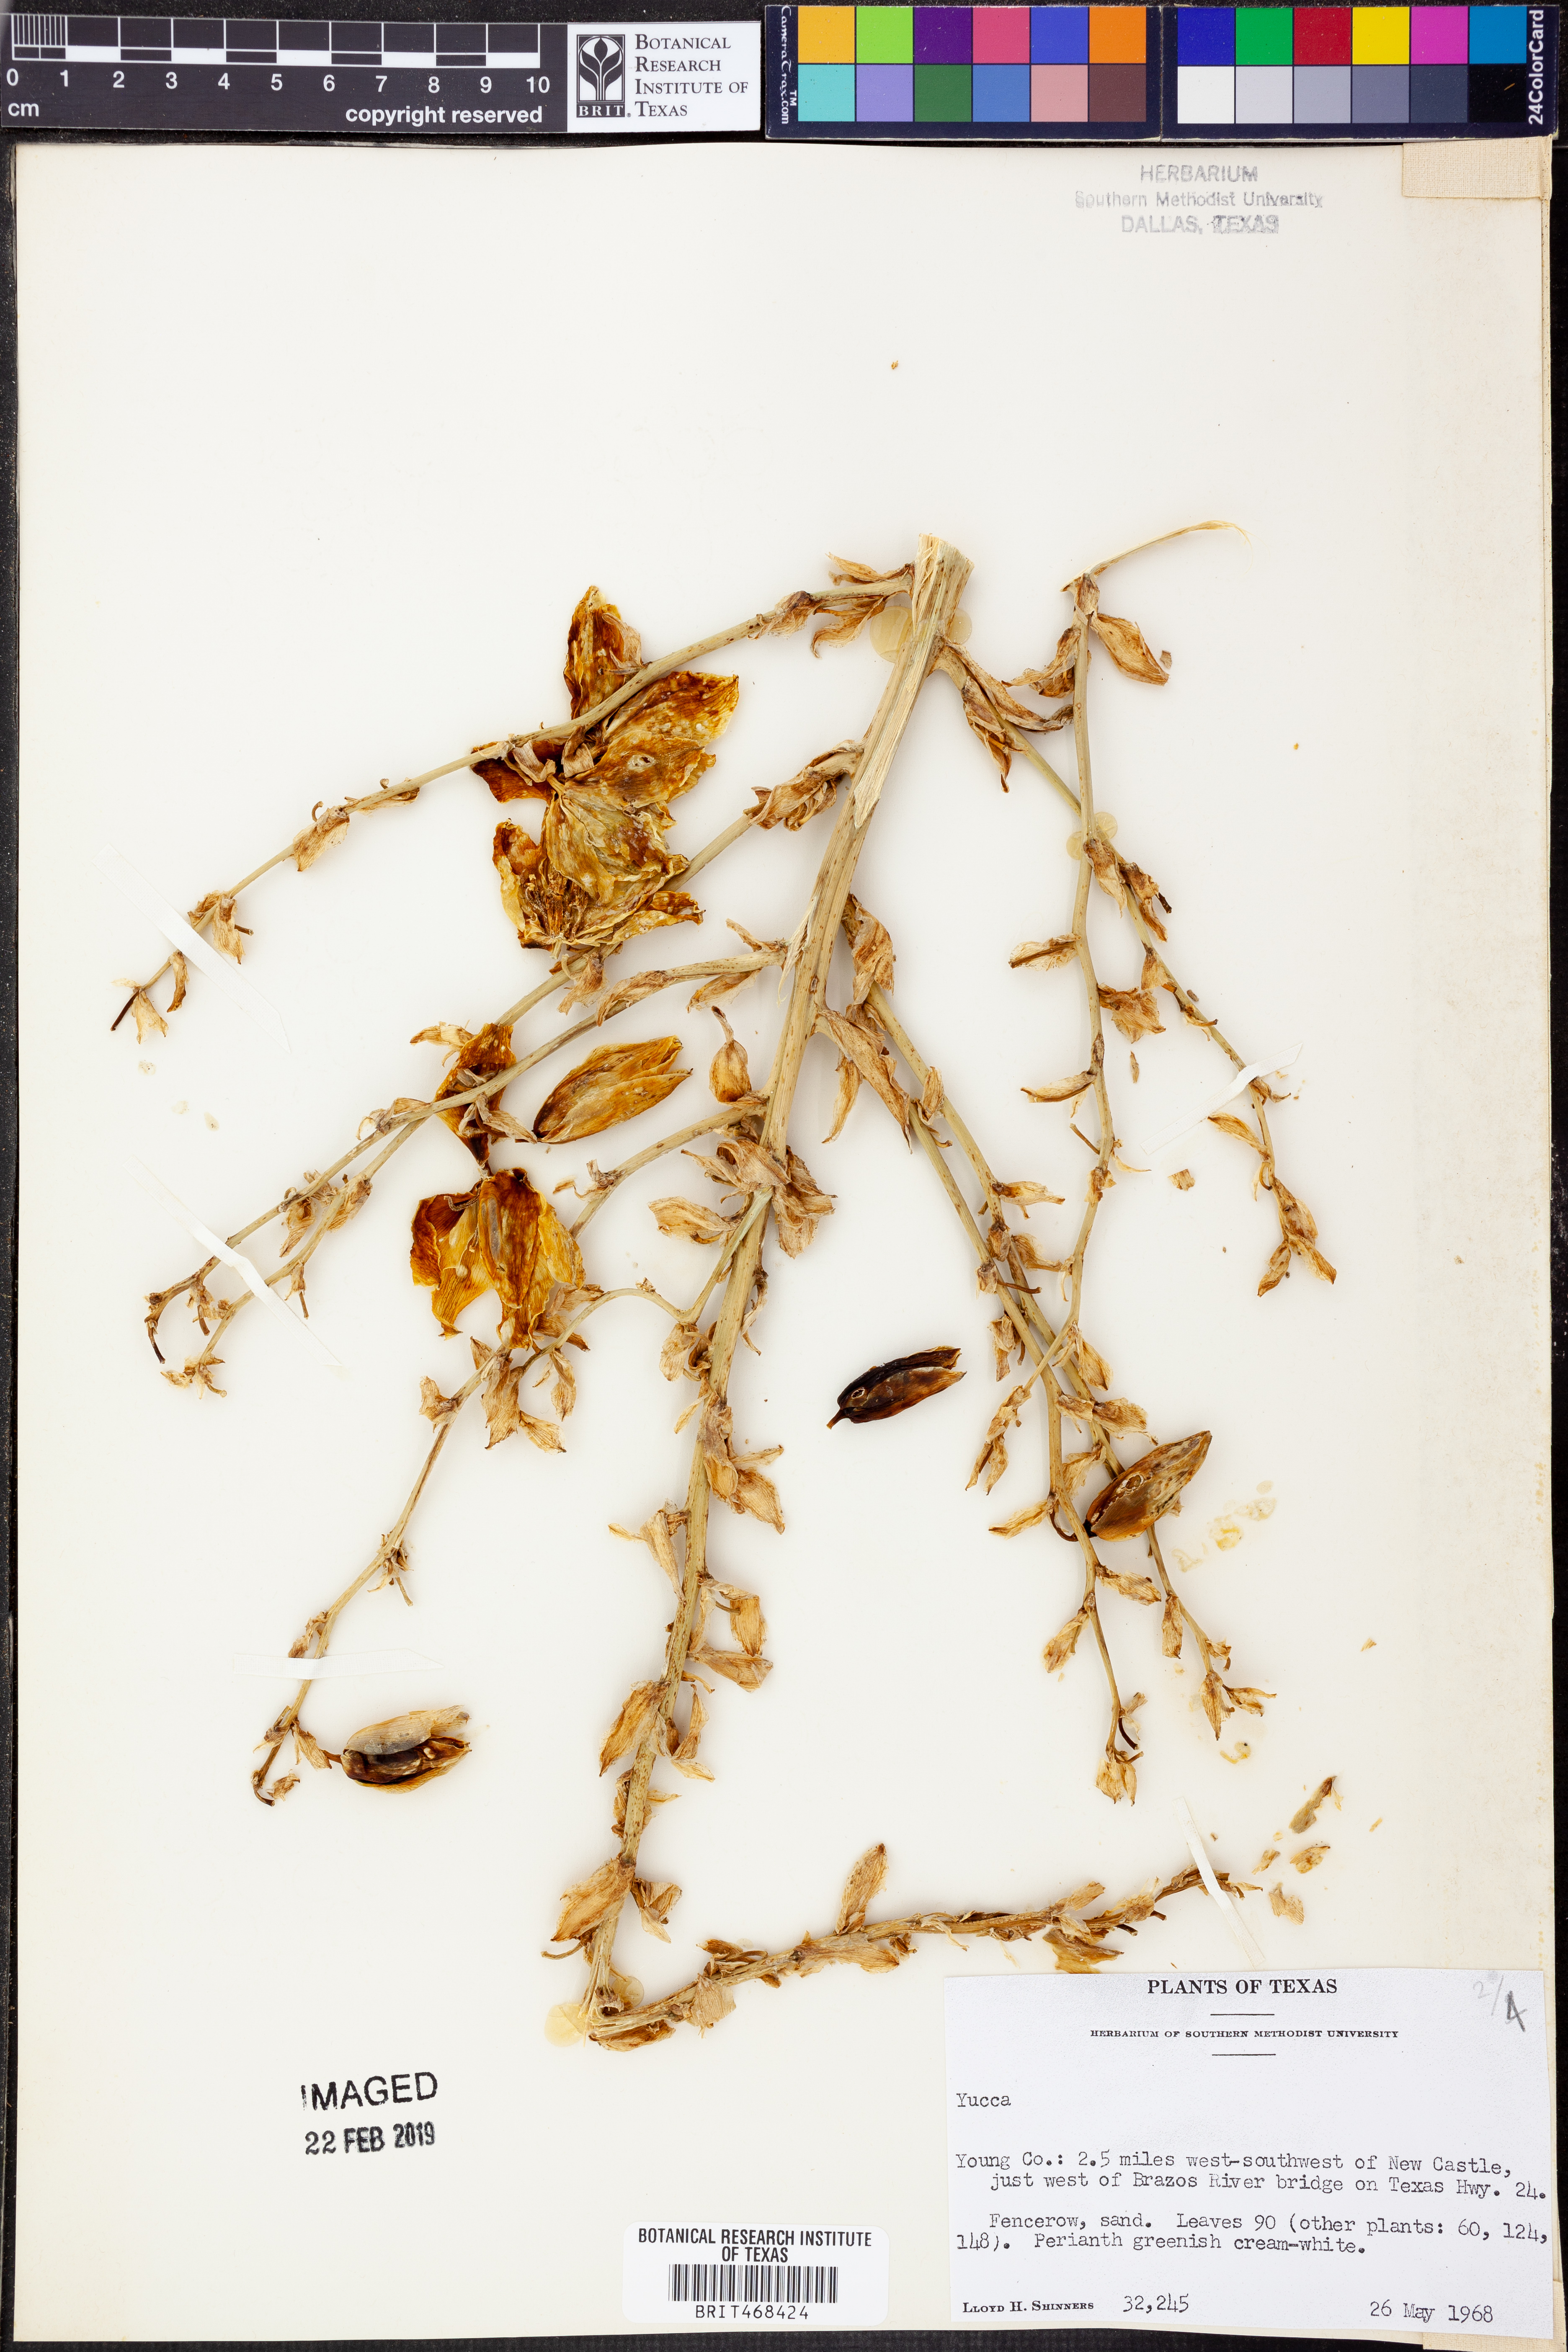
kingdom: Plantae
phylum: Tracheophyta
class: Liliopsida
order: Asparagales
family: Asparagaceae
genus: Yucca
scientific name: Yucca
